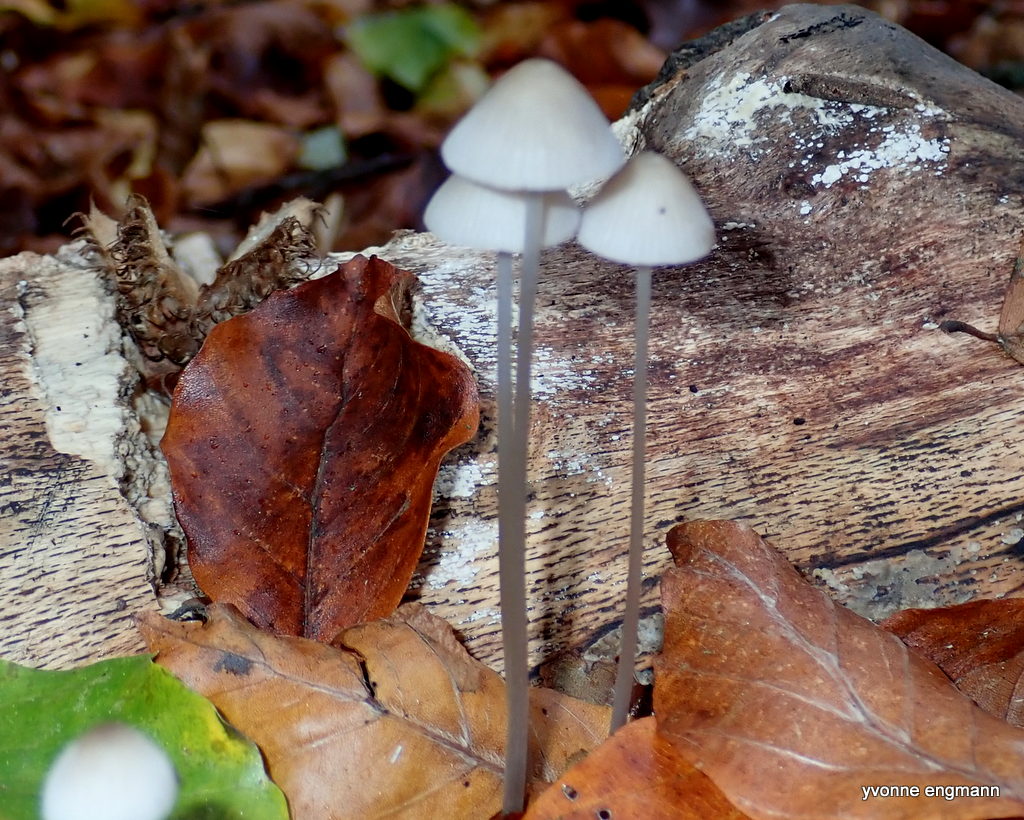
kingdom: Fungi
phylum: Basidiomycota
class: Agaricomycetes
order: Agaricales
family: Mycenaceae
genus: Mycena
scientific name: Mycena vitilis
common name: blankstokket huesvamp
